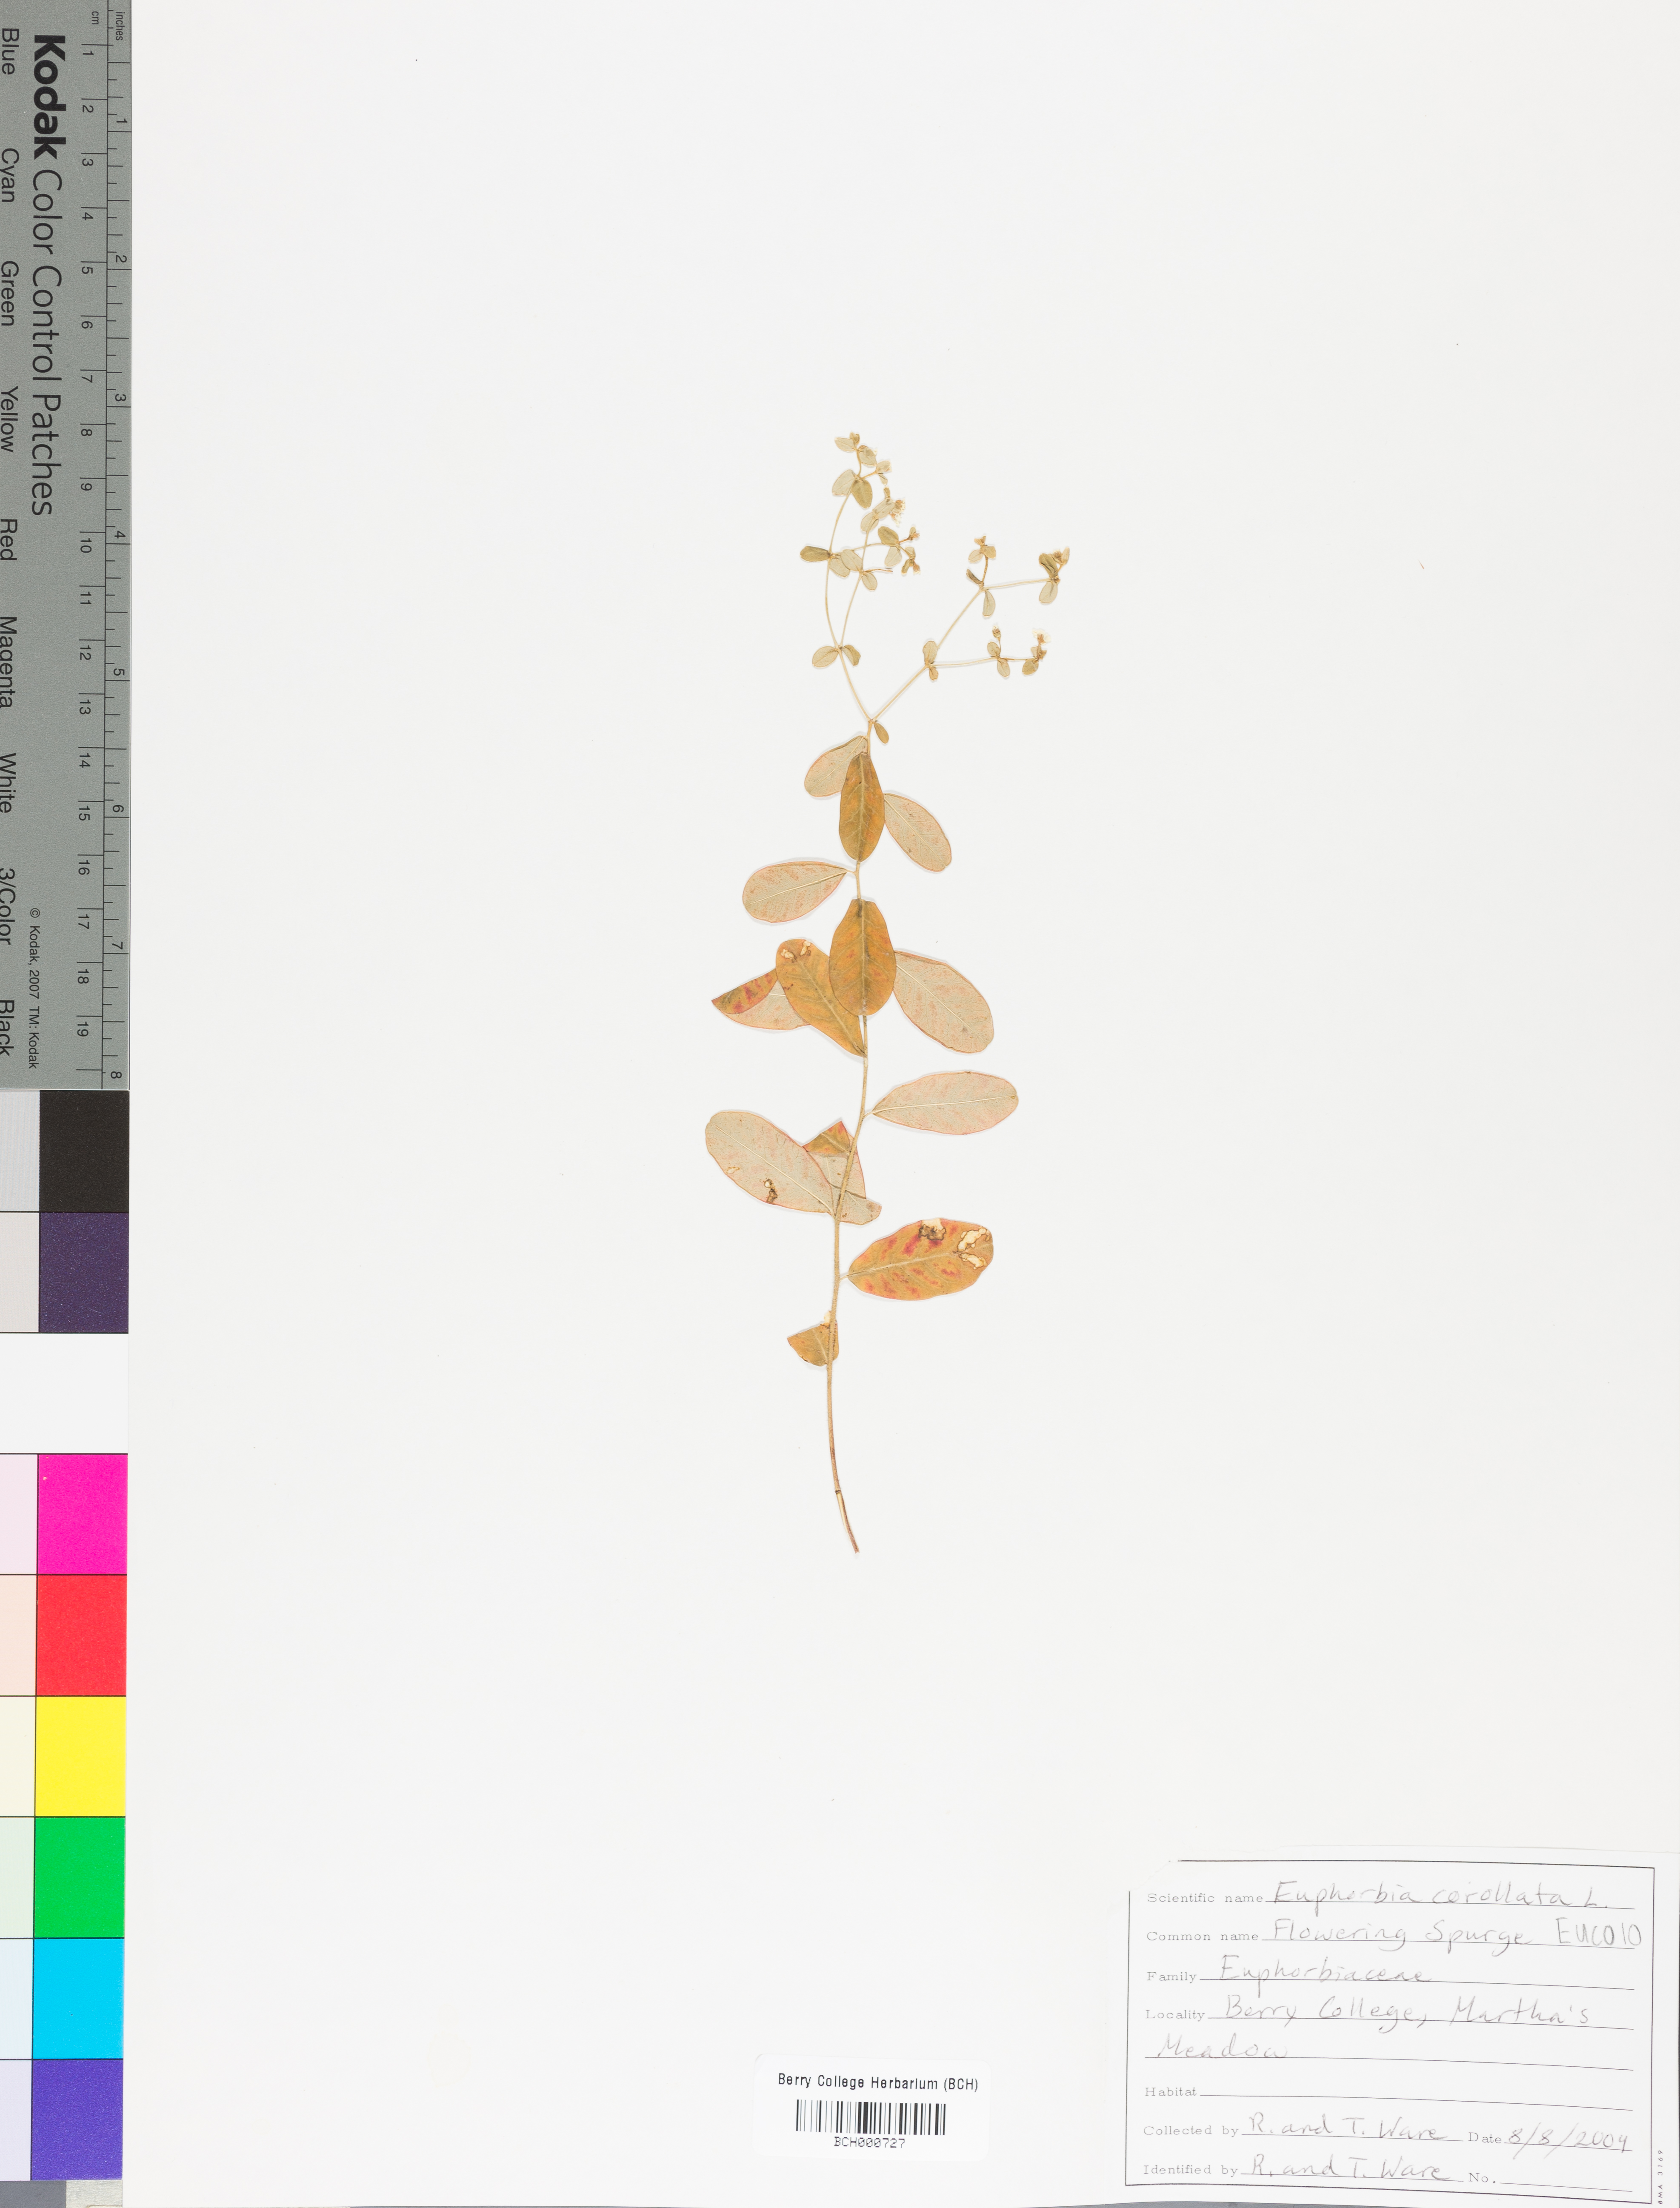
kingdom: Plantae
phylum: Tracheophyta
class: Magnoliopsida
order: Malpighiales
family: Euphorbiaceae
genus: Euphorbia
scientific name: Euphorbia corollata
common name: Flowering spurge
